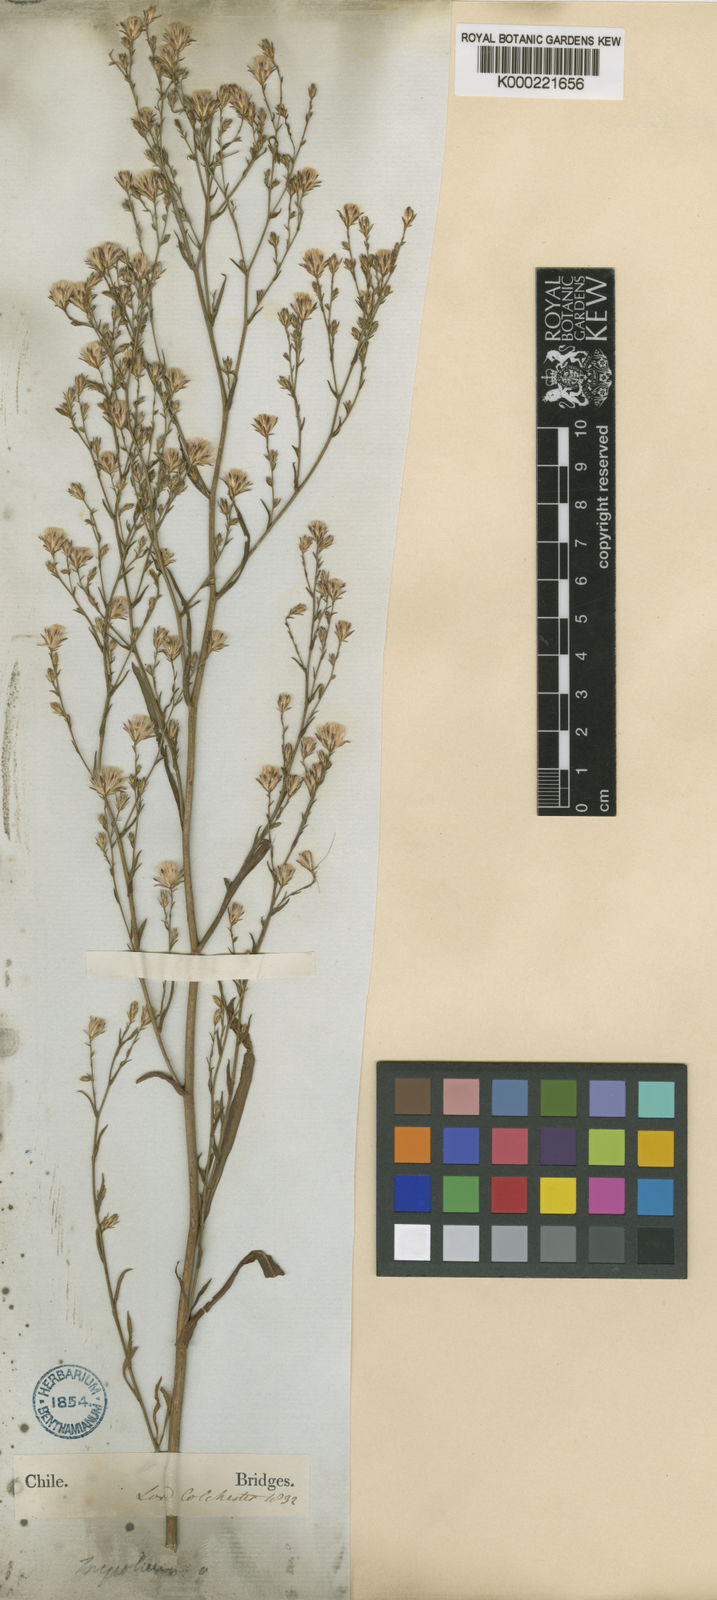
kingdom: Plantae
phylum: Tracheophyta
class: Magnoliopsida
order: Asterales
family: Asteraceae
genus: Symphyotrichum
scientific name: Symphyotrichum squamatum
